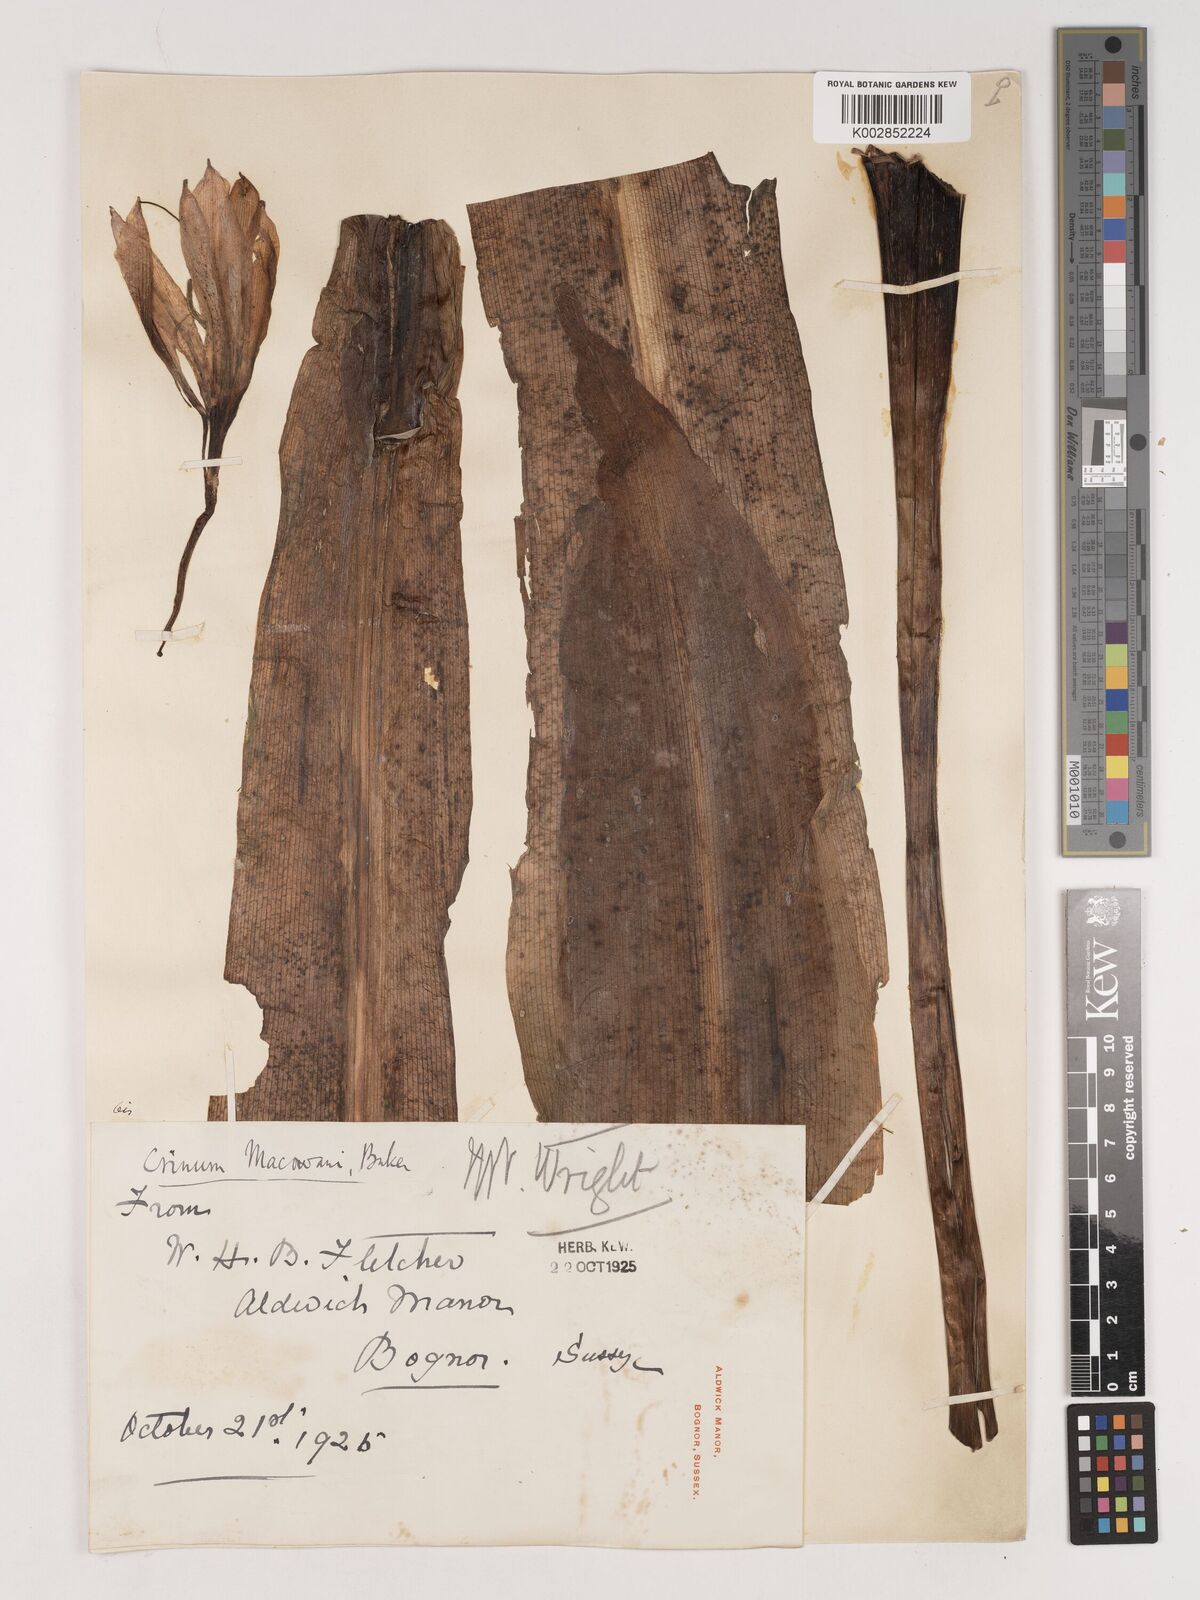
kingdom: Plantae
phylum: Tracheophyta
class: Liliopsida
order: Asparagales
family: Amaryllidaceae
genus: Crinum
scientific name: Crinum macowanii
